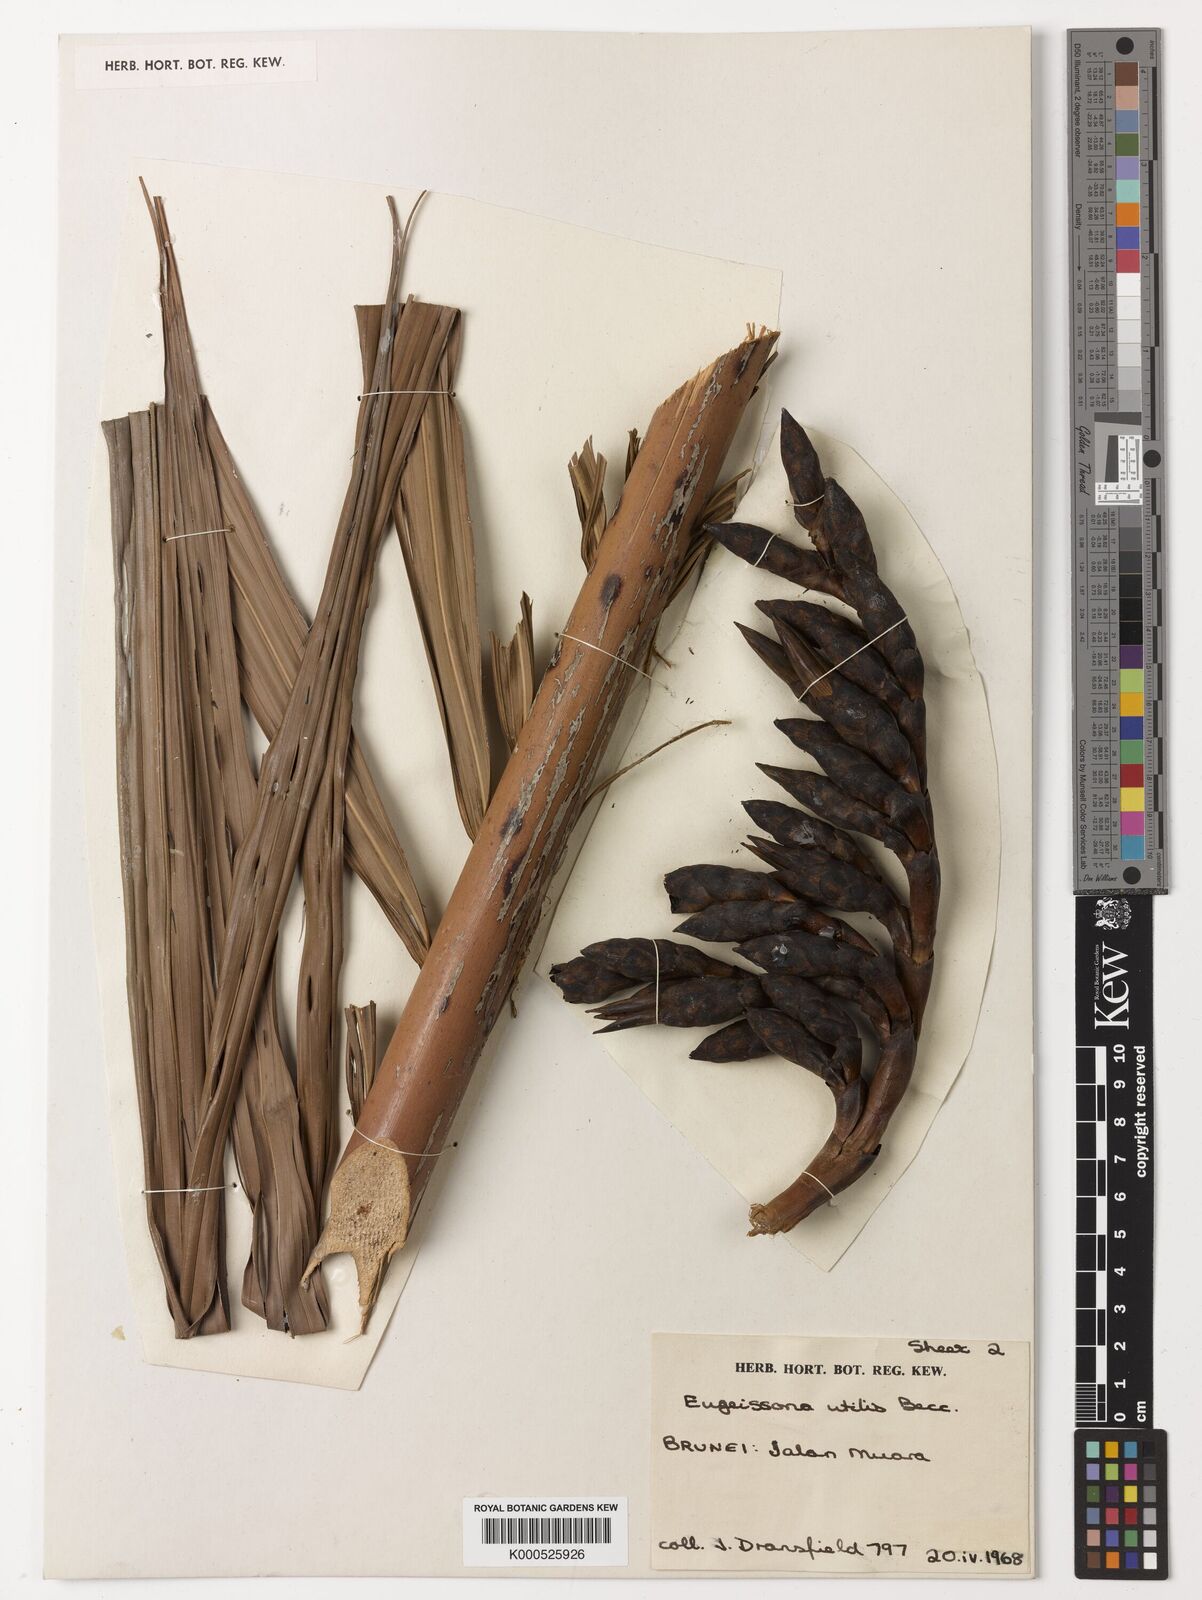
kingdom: Plantae
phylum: Tracheophyta
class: Liliopsida
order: Arecales
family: Arecaceae
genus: Eugeissona
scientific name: Eugeissona utilis
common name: Wild bornean sago palm
